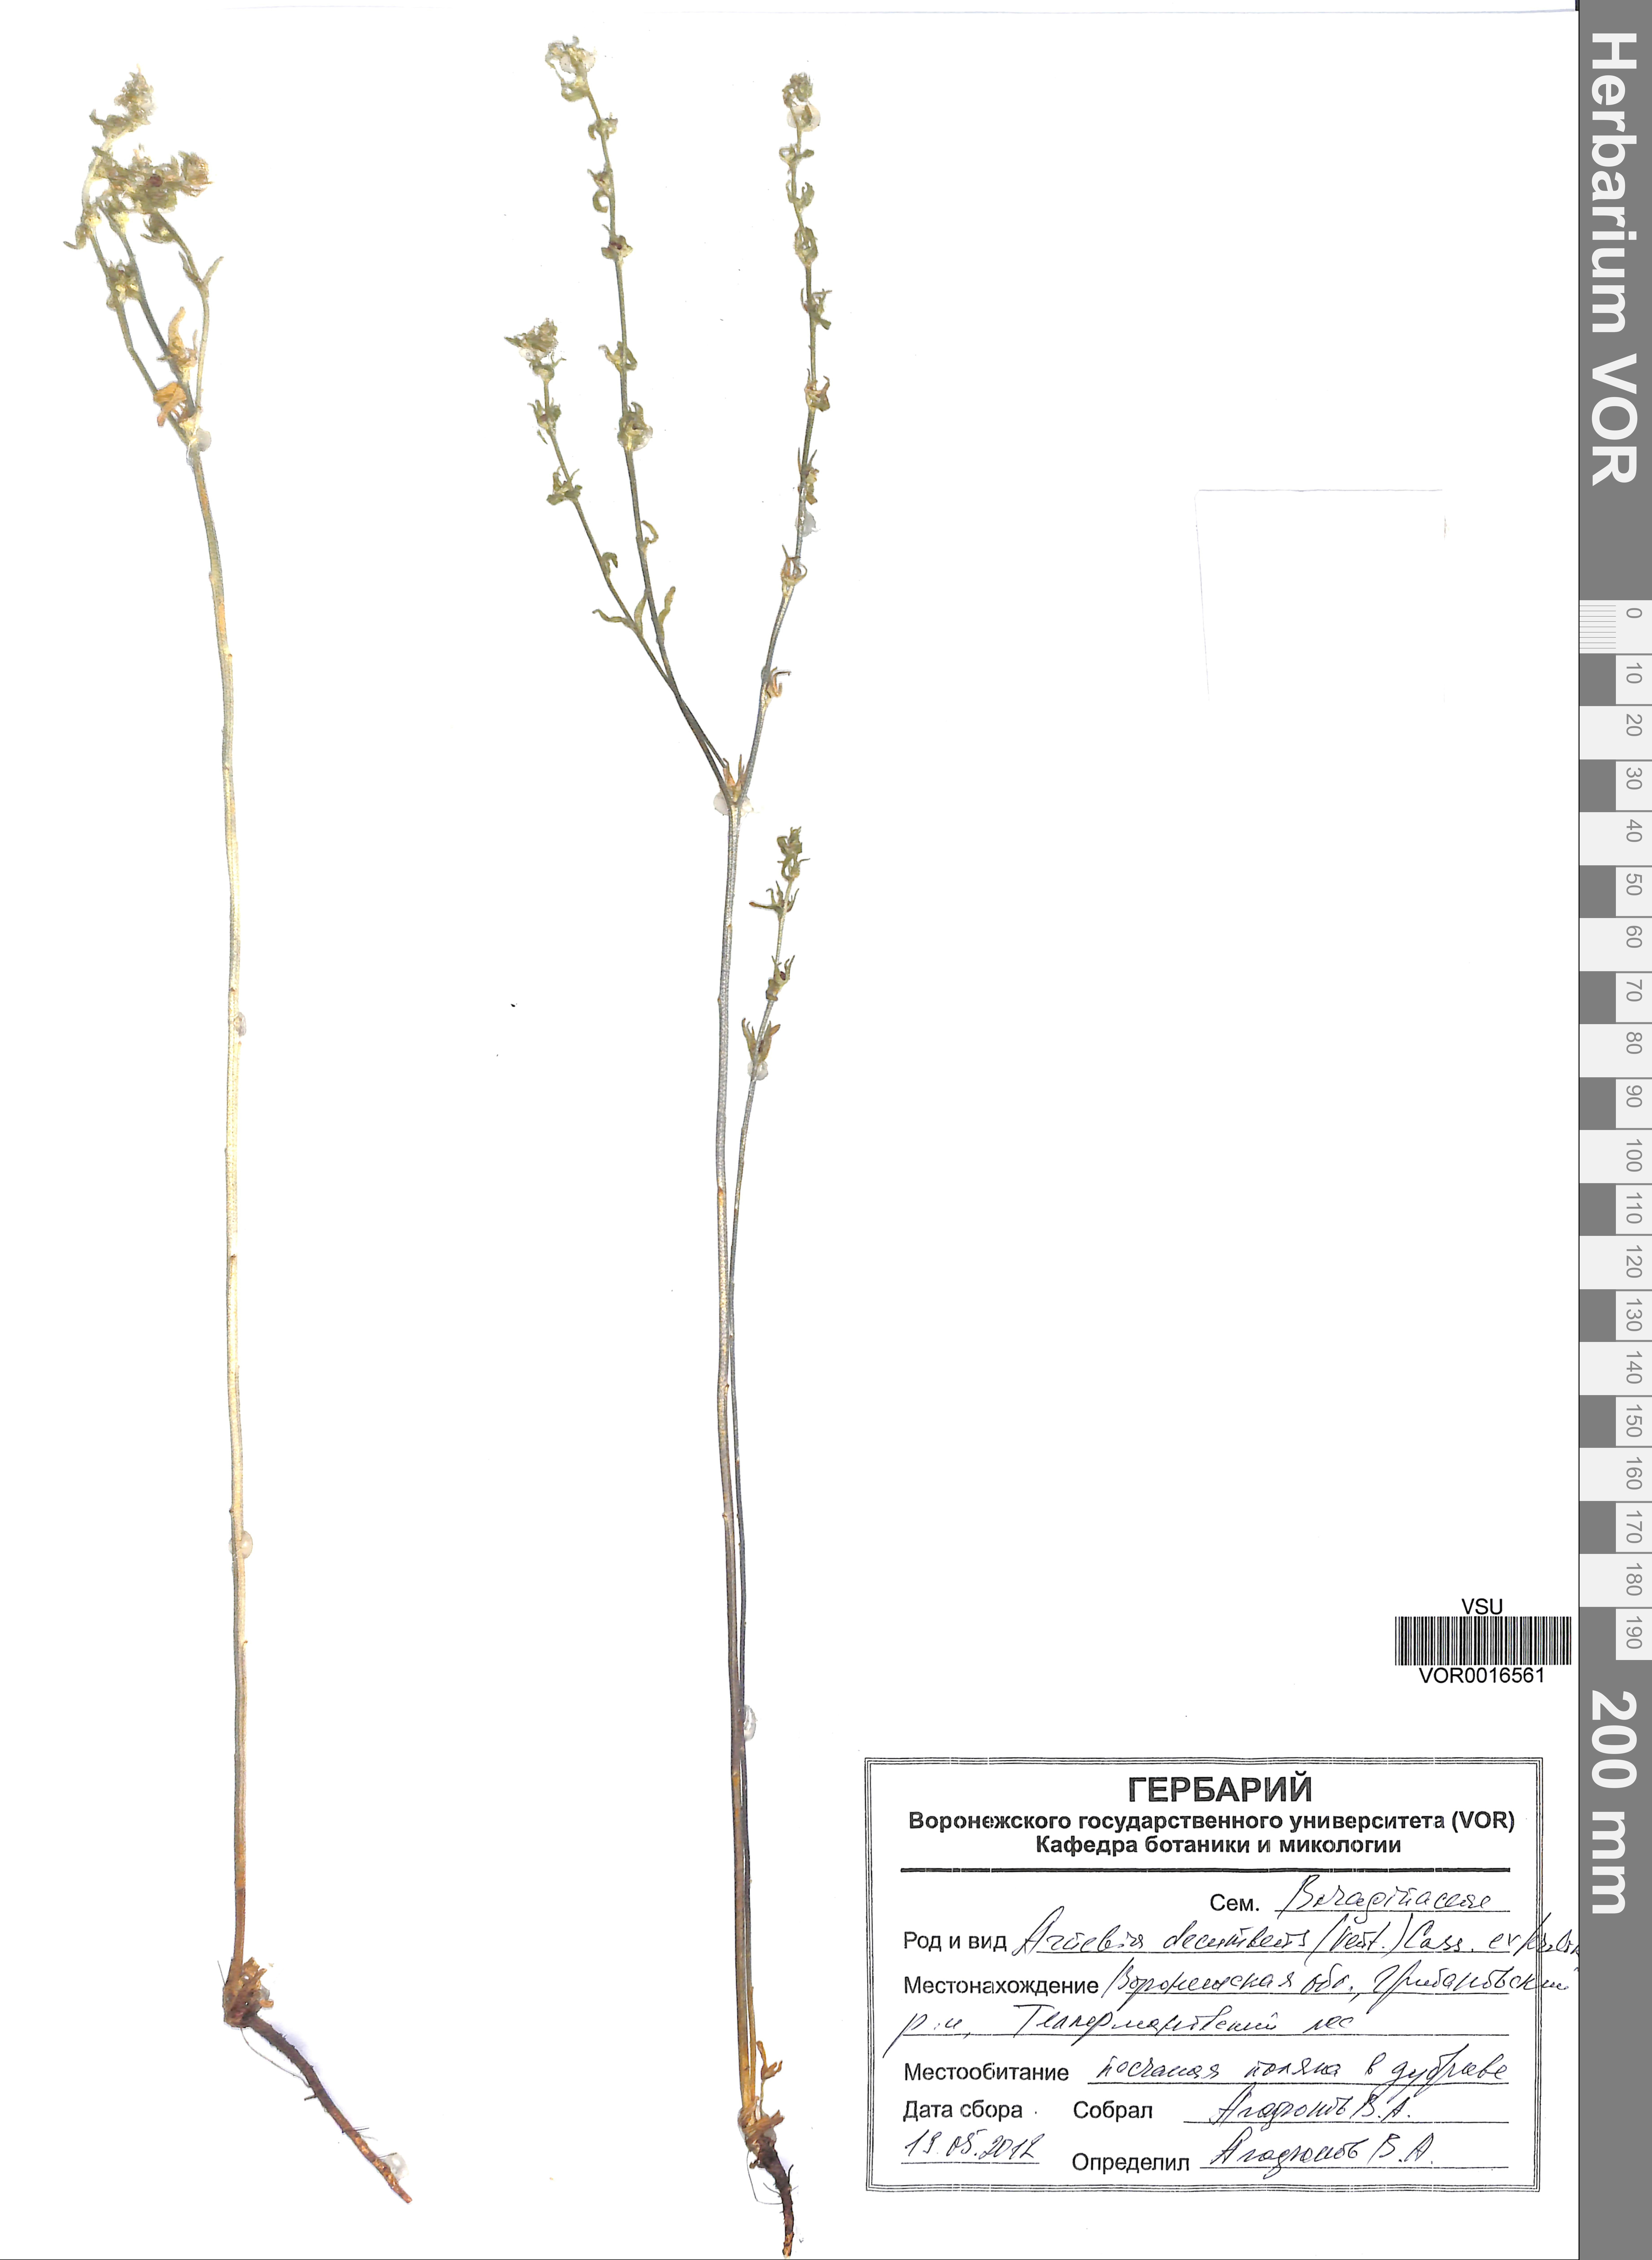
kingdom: Plantae
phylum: Tracheophyta
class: Magnoliopsida
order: Boraginales
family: Boraginaceae
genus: Arnebia
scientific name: Arnebia decumbens
